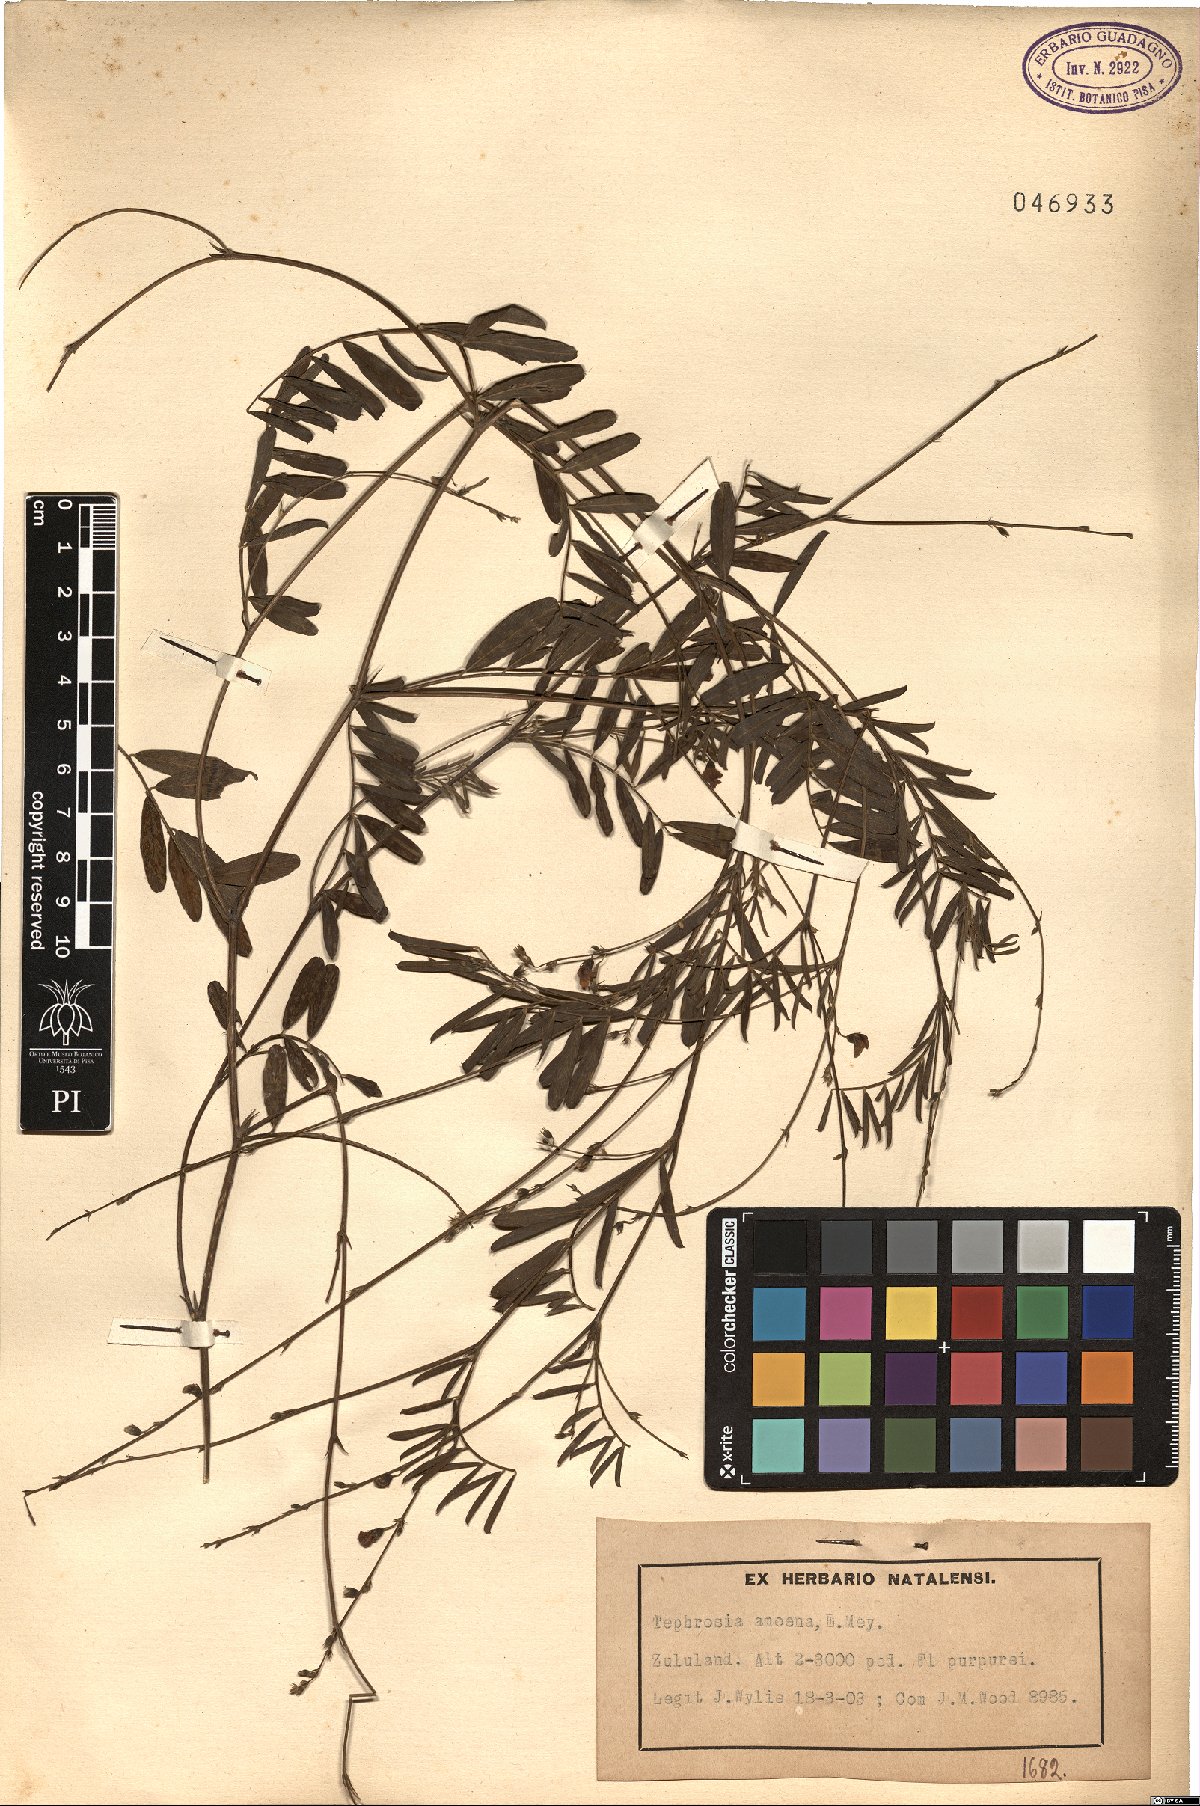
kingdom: Plantae
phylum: Tracheophyta
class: Magnoliopsida
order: Fabales
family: Fabaceae
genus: Tephrosia
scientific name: Tephrosia amoena
